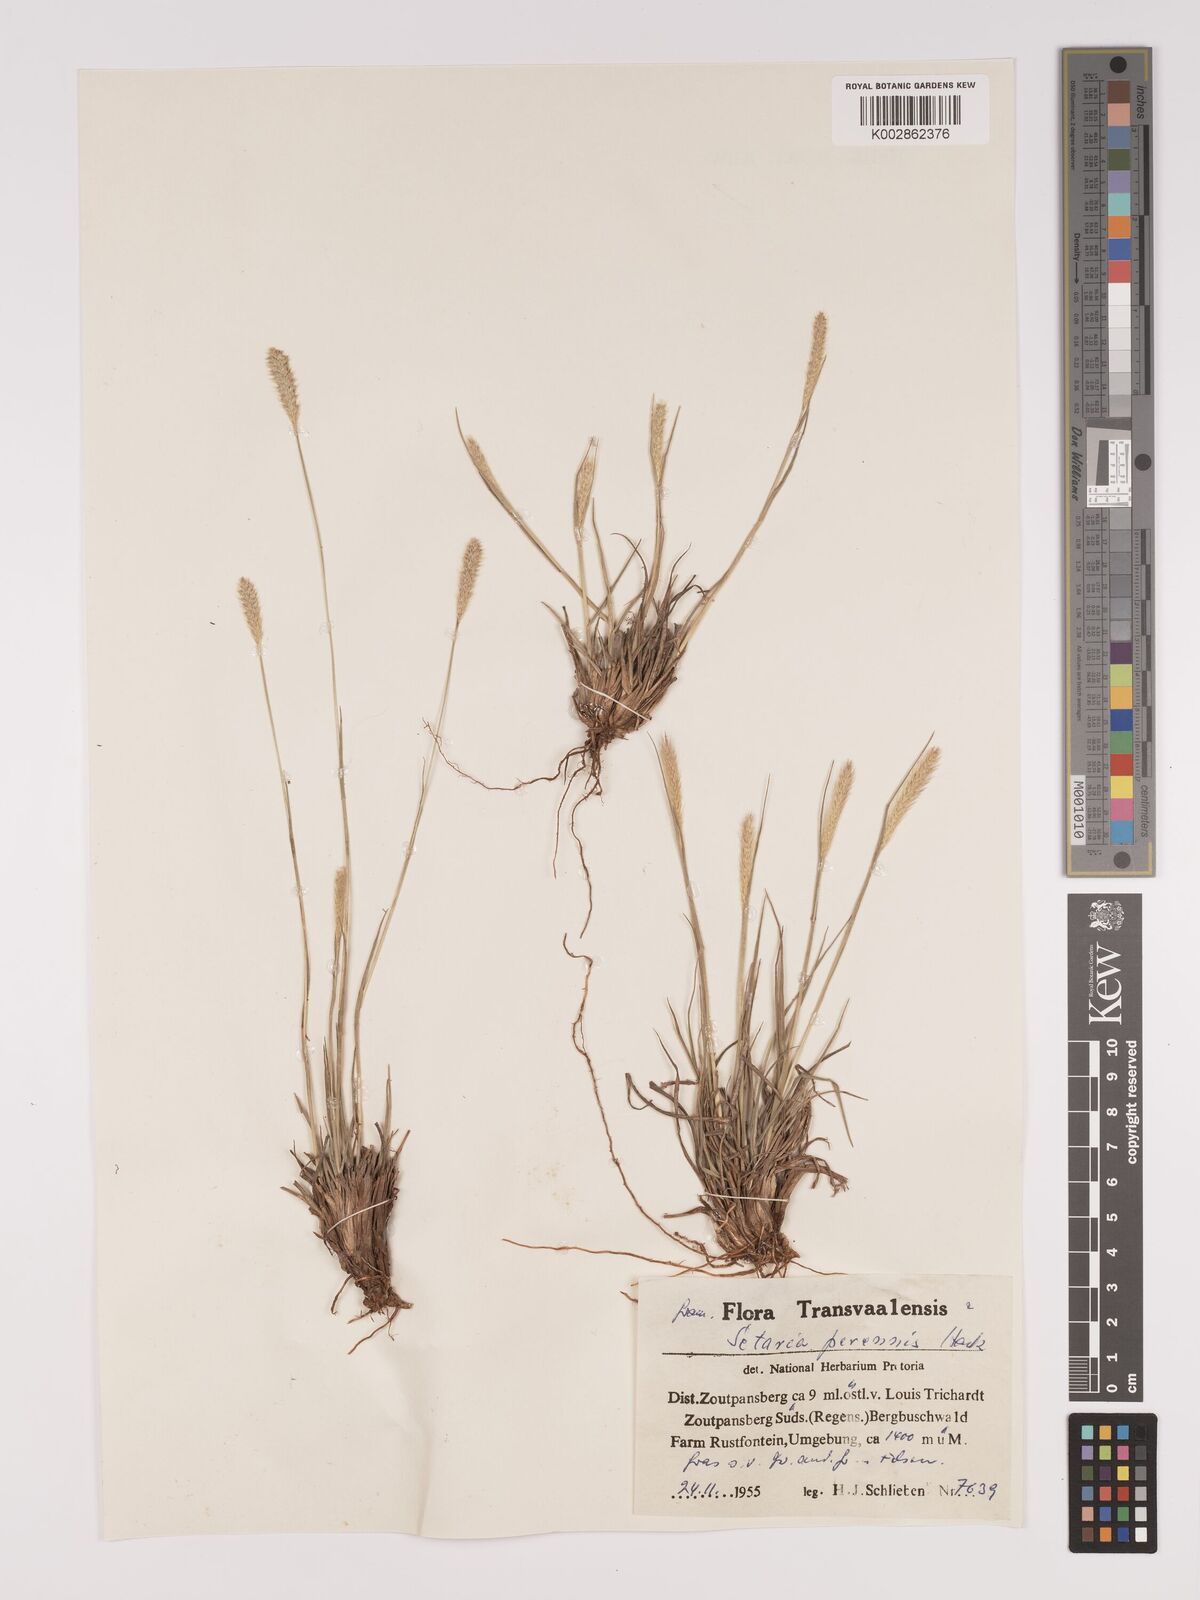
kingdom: Plantae
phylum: Tracheophyta
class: Liliopsida
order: Poales
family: Poaceae
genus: Setaria
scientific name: Setaria
